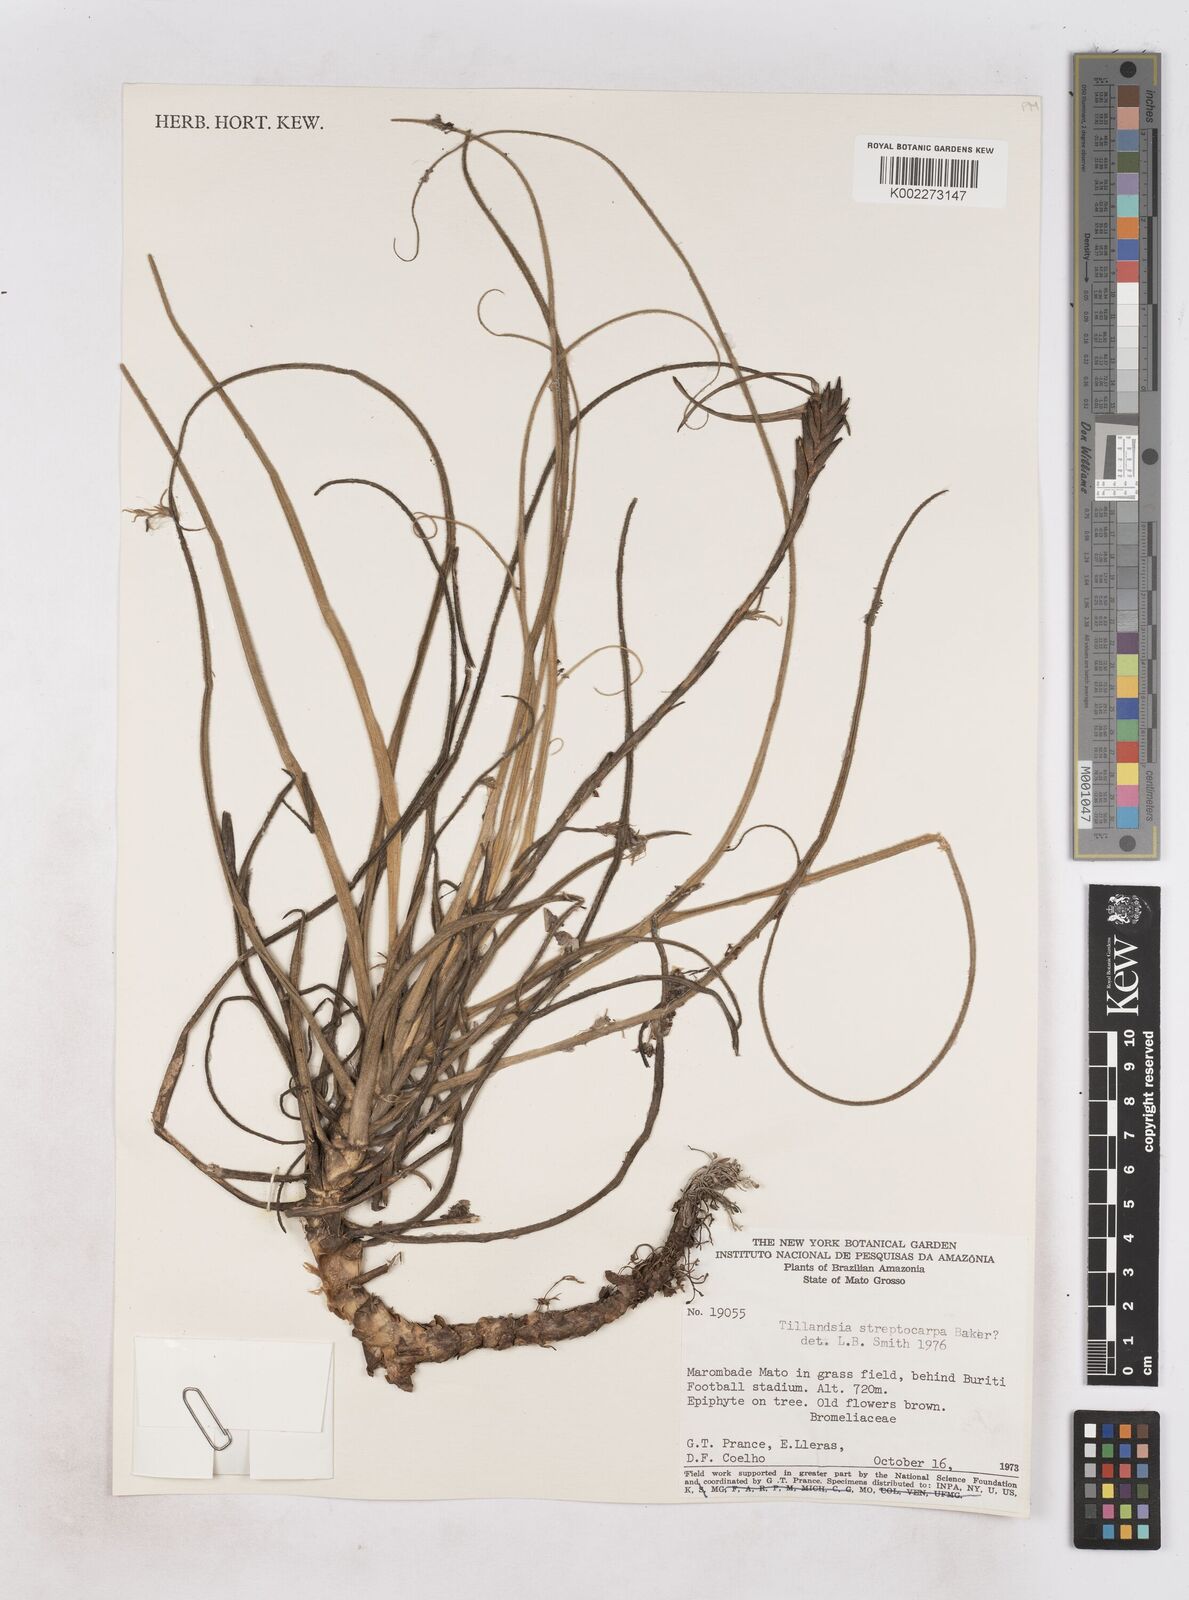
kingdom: Plantae
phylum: Tracheophyta
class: Liliopsida
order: Poales
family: Bromeliaceae
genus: Tillandsia
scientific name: Tillandsia streptocarpa
